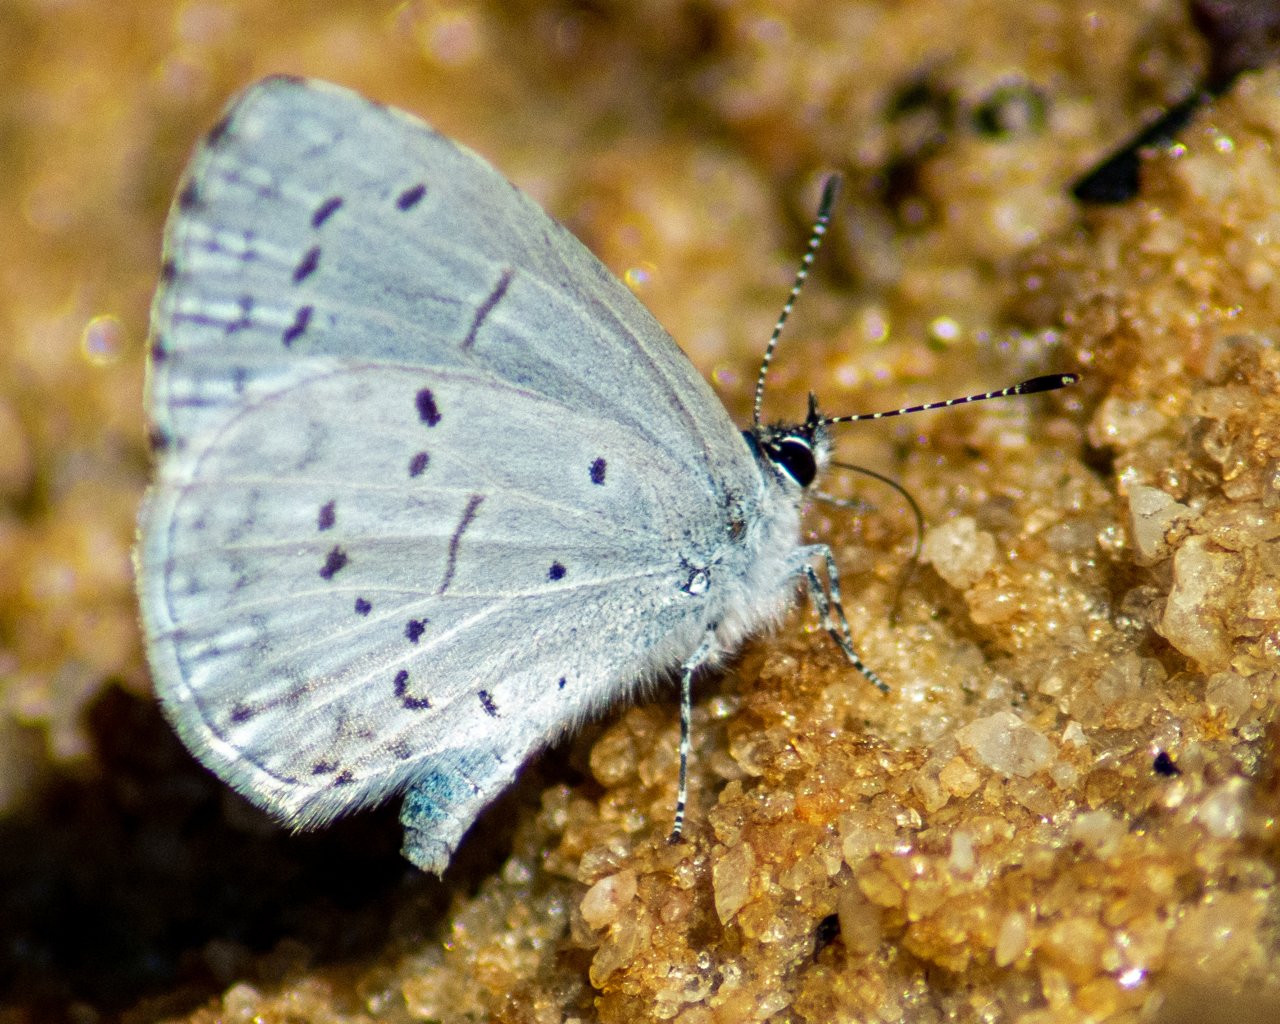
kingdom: Animalia
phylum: Arthropoda
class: Insecta
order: Lepidoptera
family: Lycaenidae
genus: Celastrina
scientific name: Celastrina
